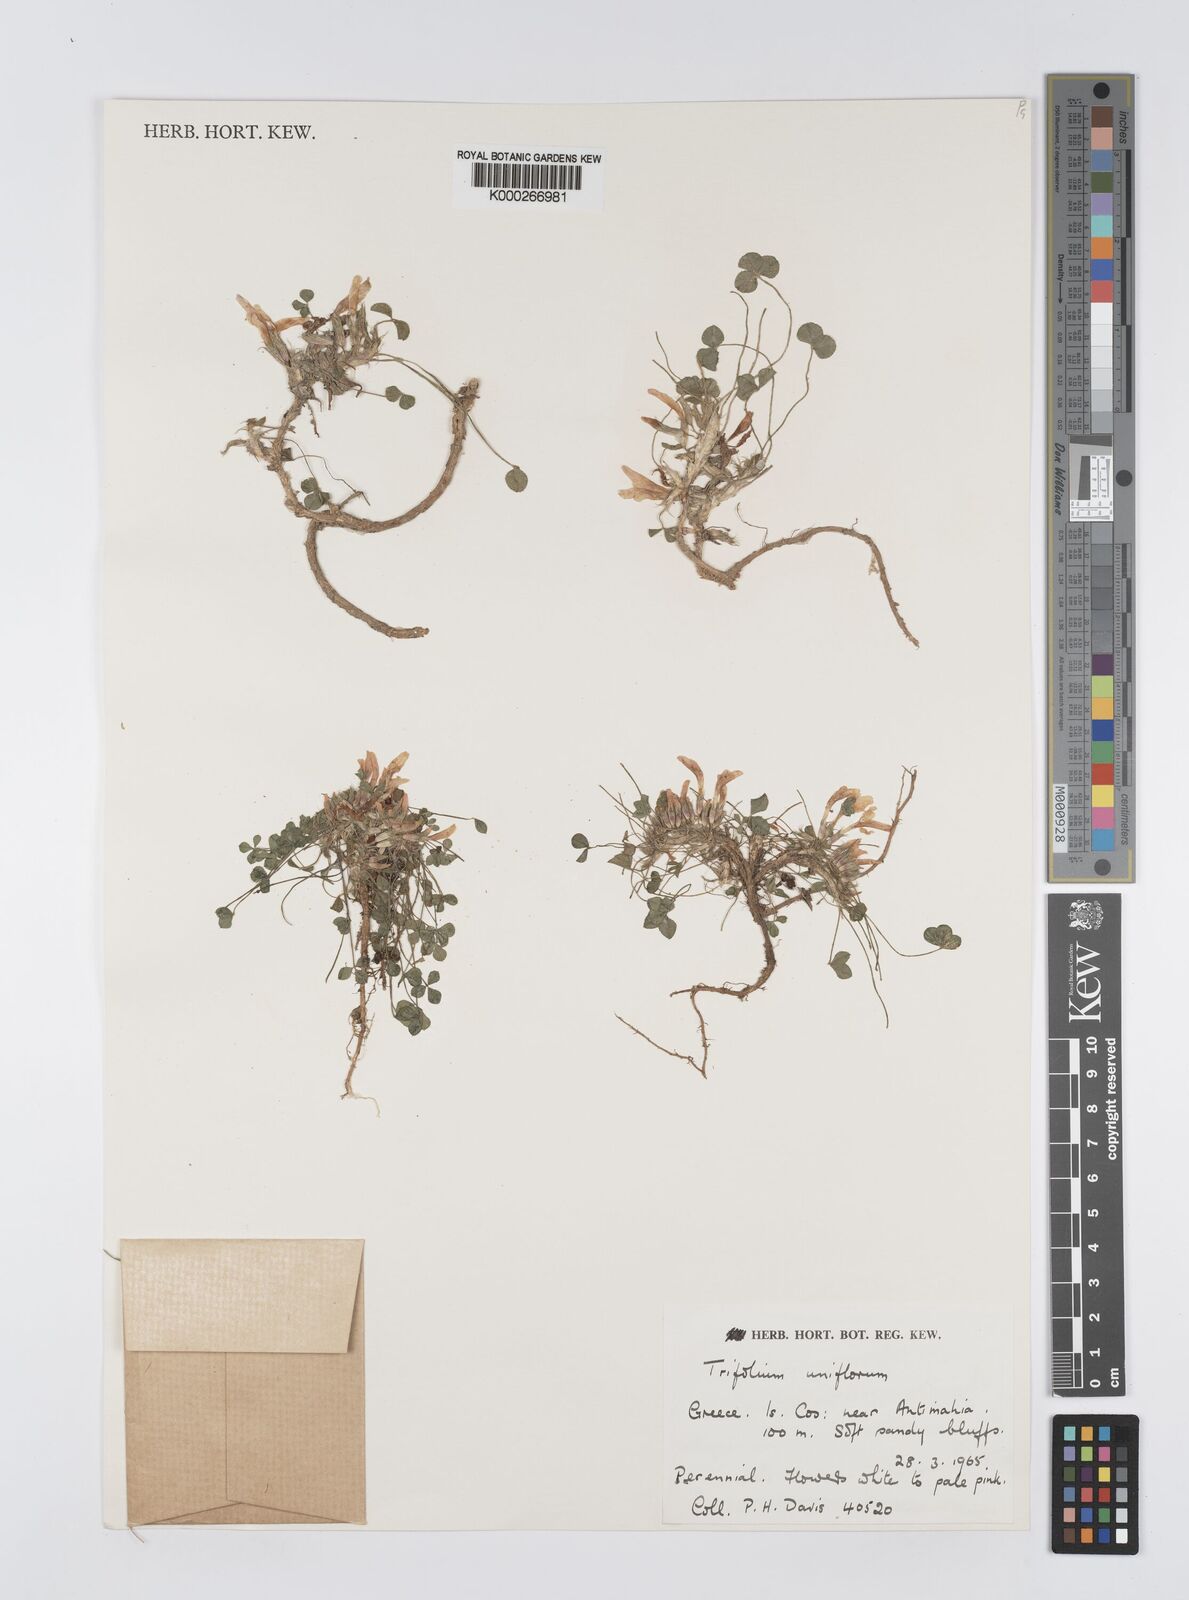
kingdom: Plantae
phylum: Tracheophyta
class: Magnoliopsida
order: Fabales
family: Fabaceae
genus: Trifolium
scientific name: Trifolium uniflorum
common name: One-flower clover
